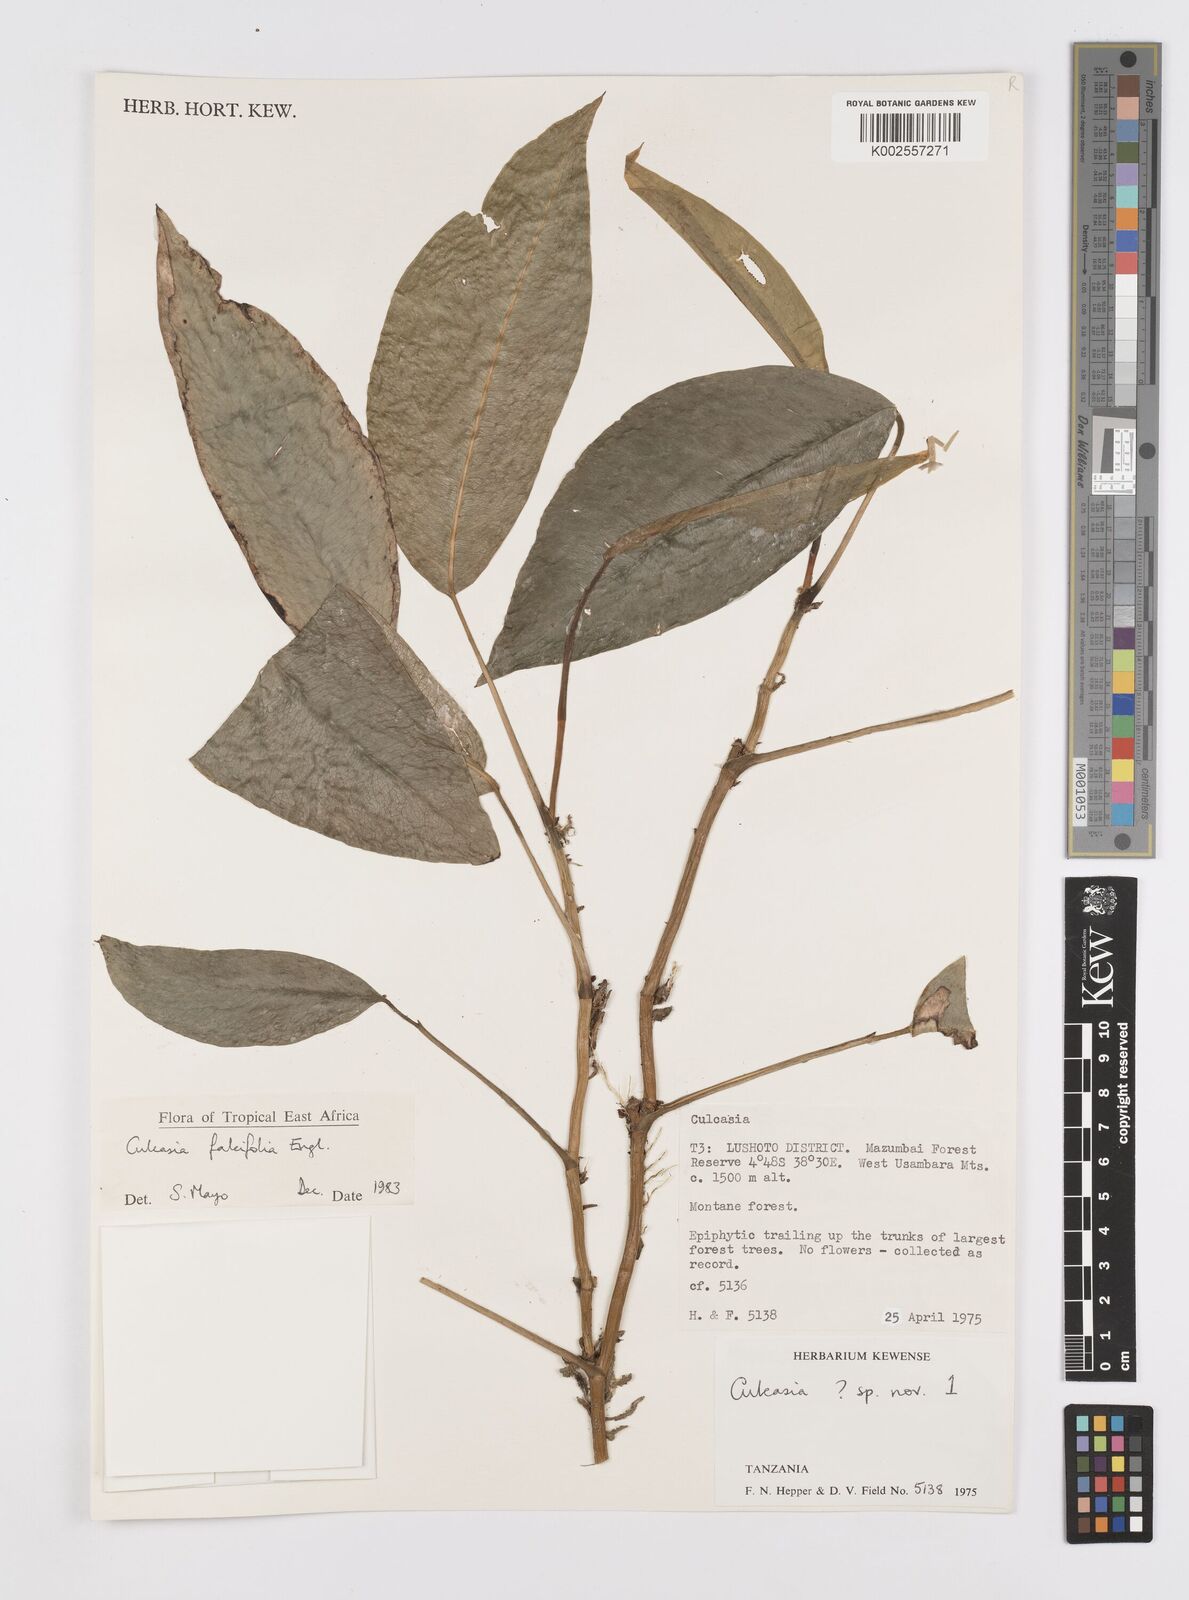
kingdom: Plantae
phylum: Tracheophyta
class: Liliopsida
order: Alismatales
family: Araceae
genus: Culcasia
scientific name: Culcasia falcifolia
